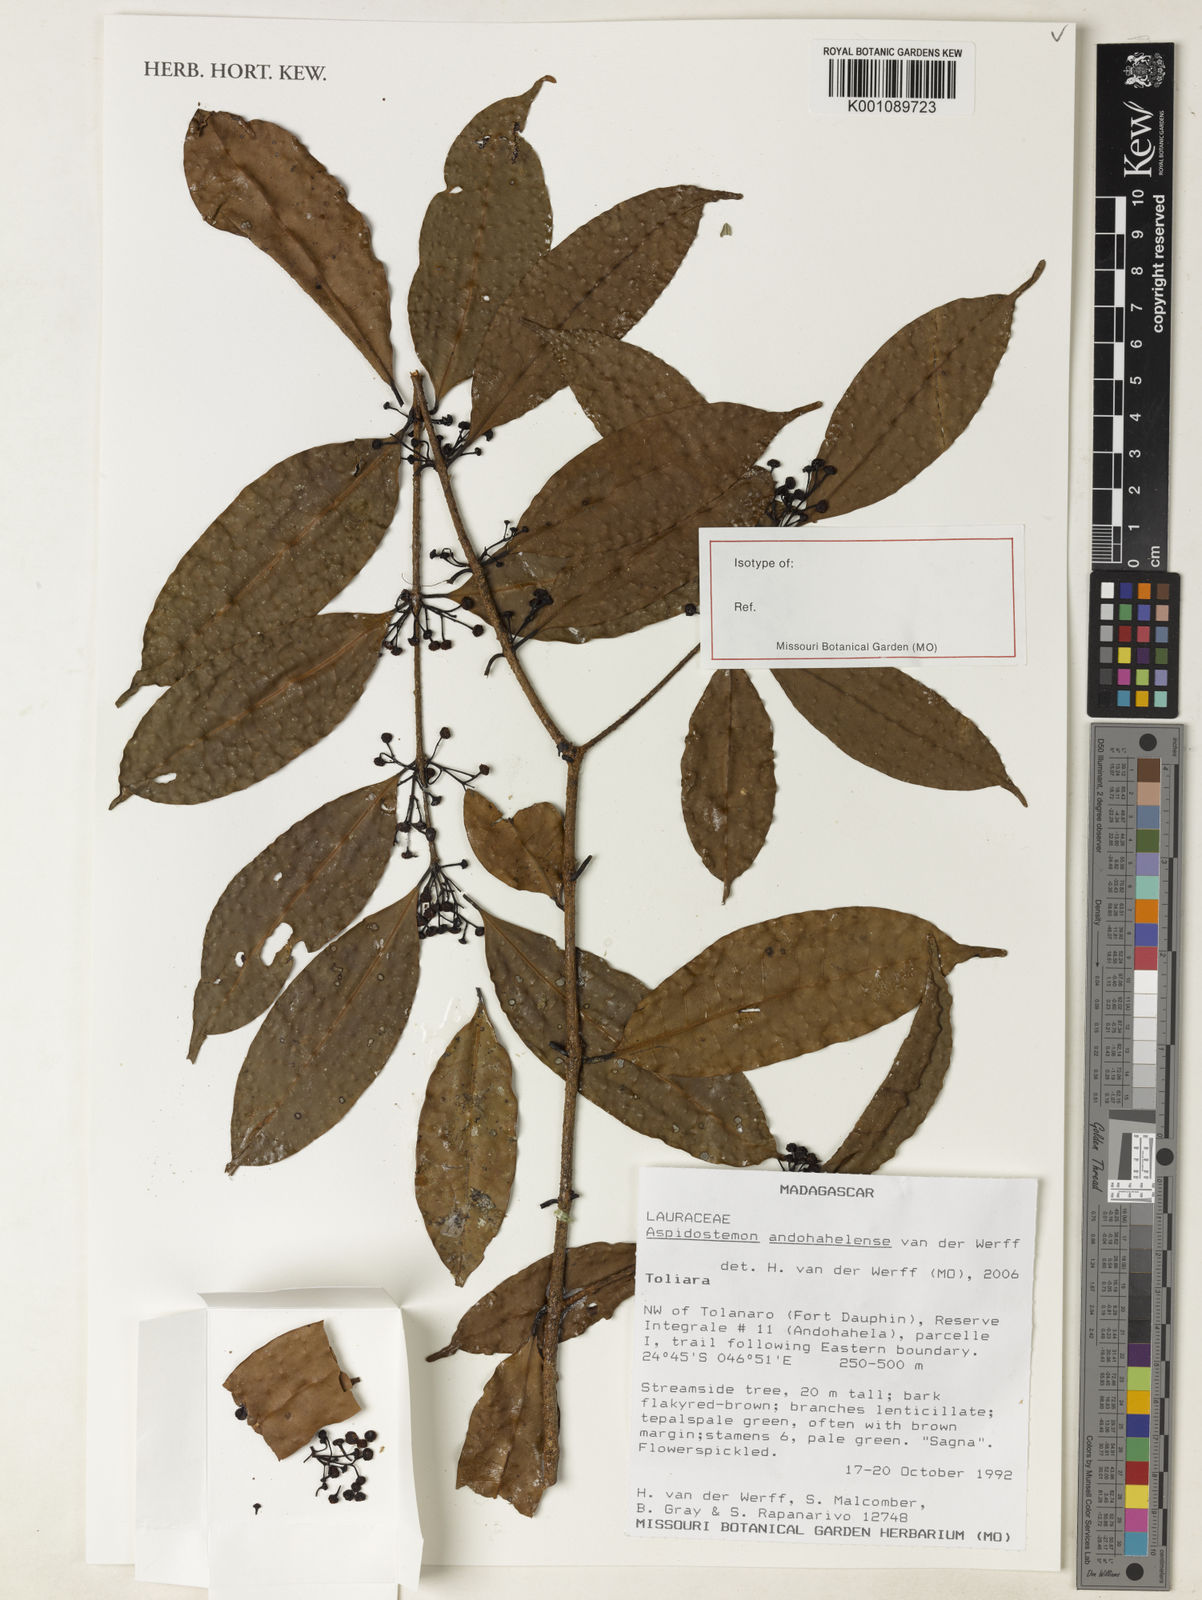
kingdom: Plantae
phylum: Tracheophyta
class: Magnoliopsida
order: Laurales
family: Lauraceae
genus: Aspidostemon
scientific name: Aspidostemon andohahelensis
